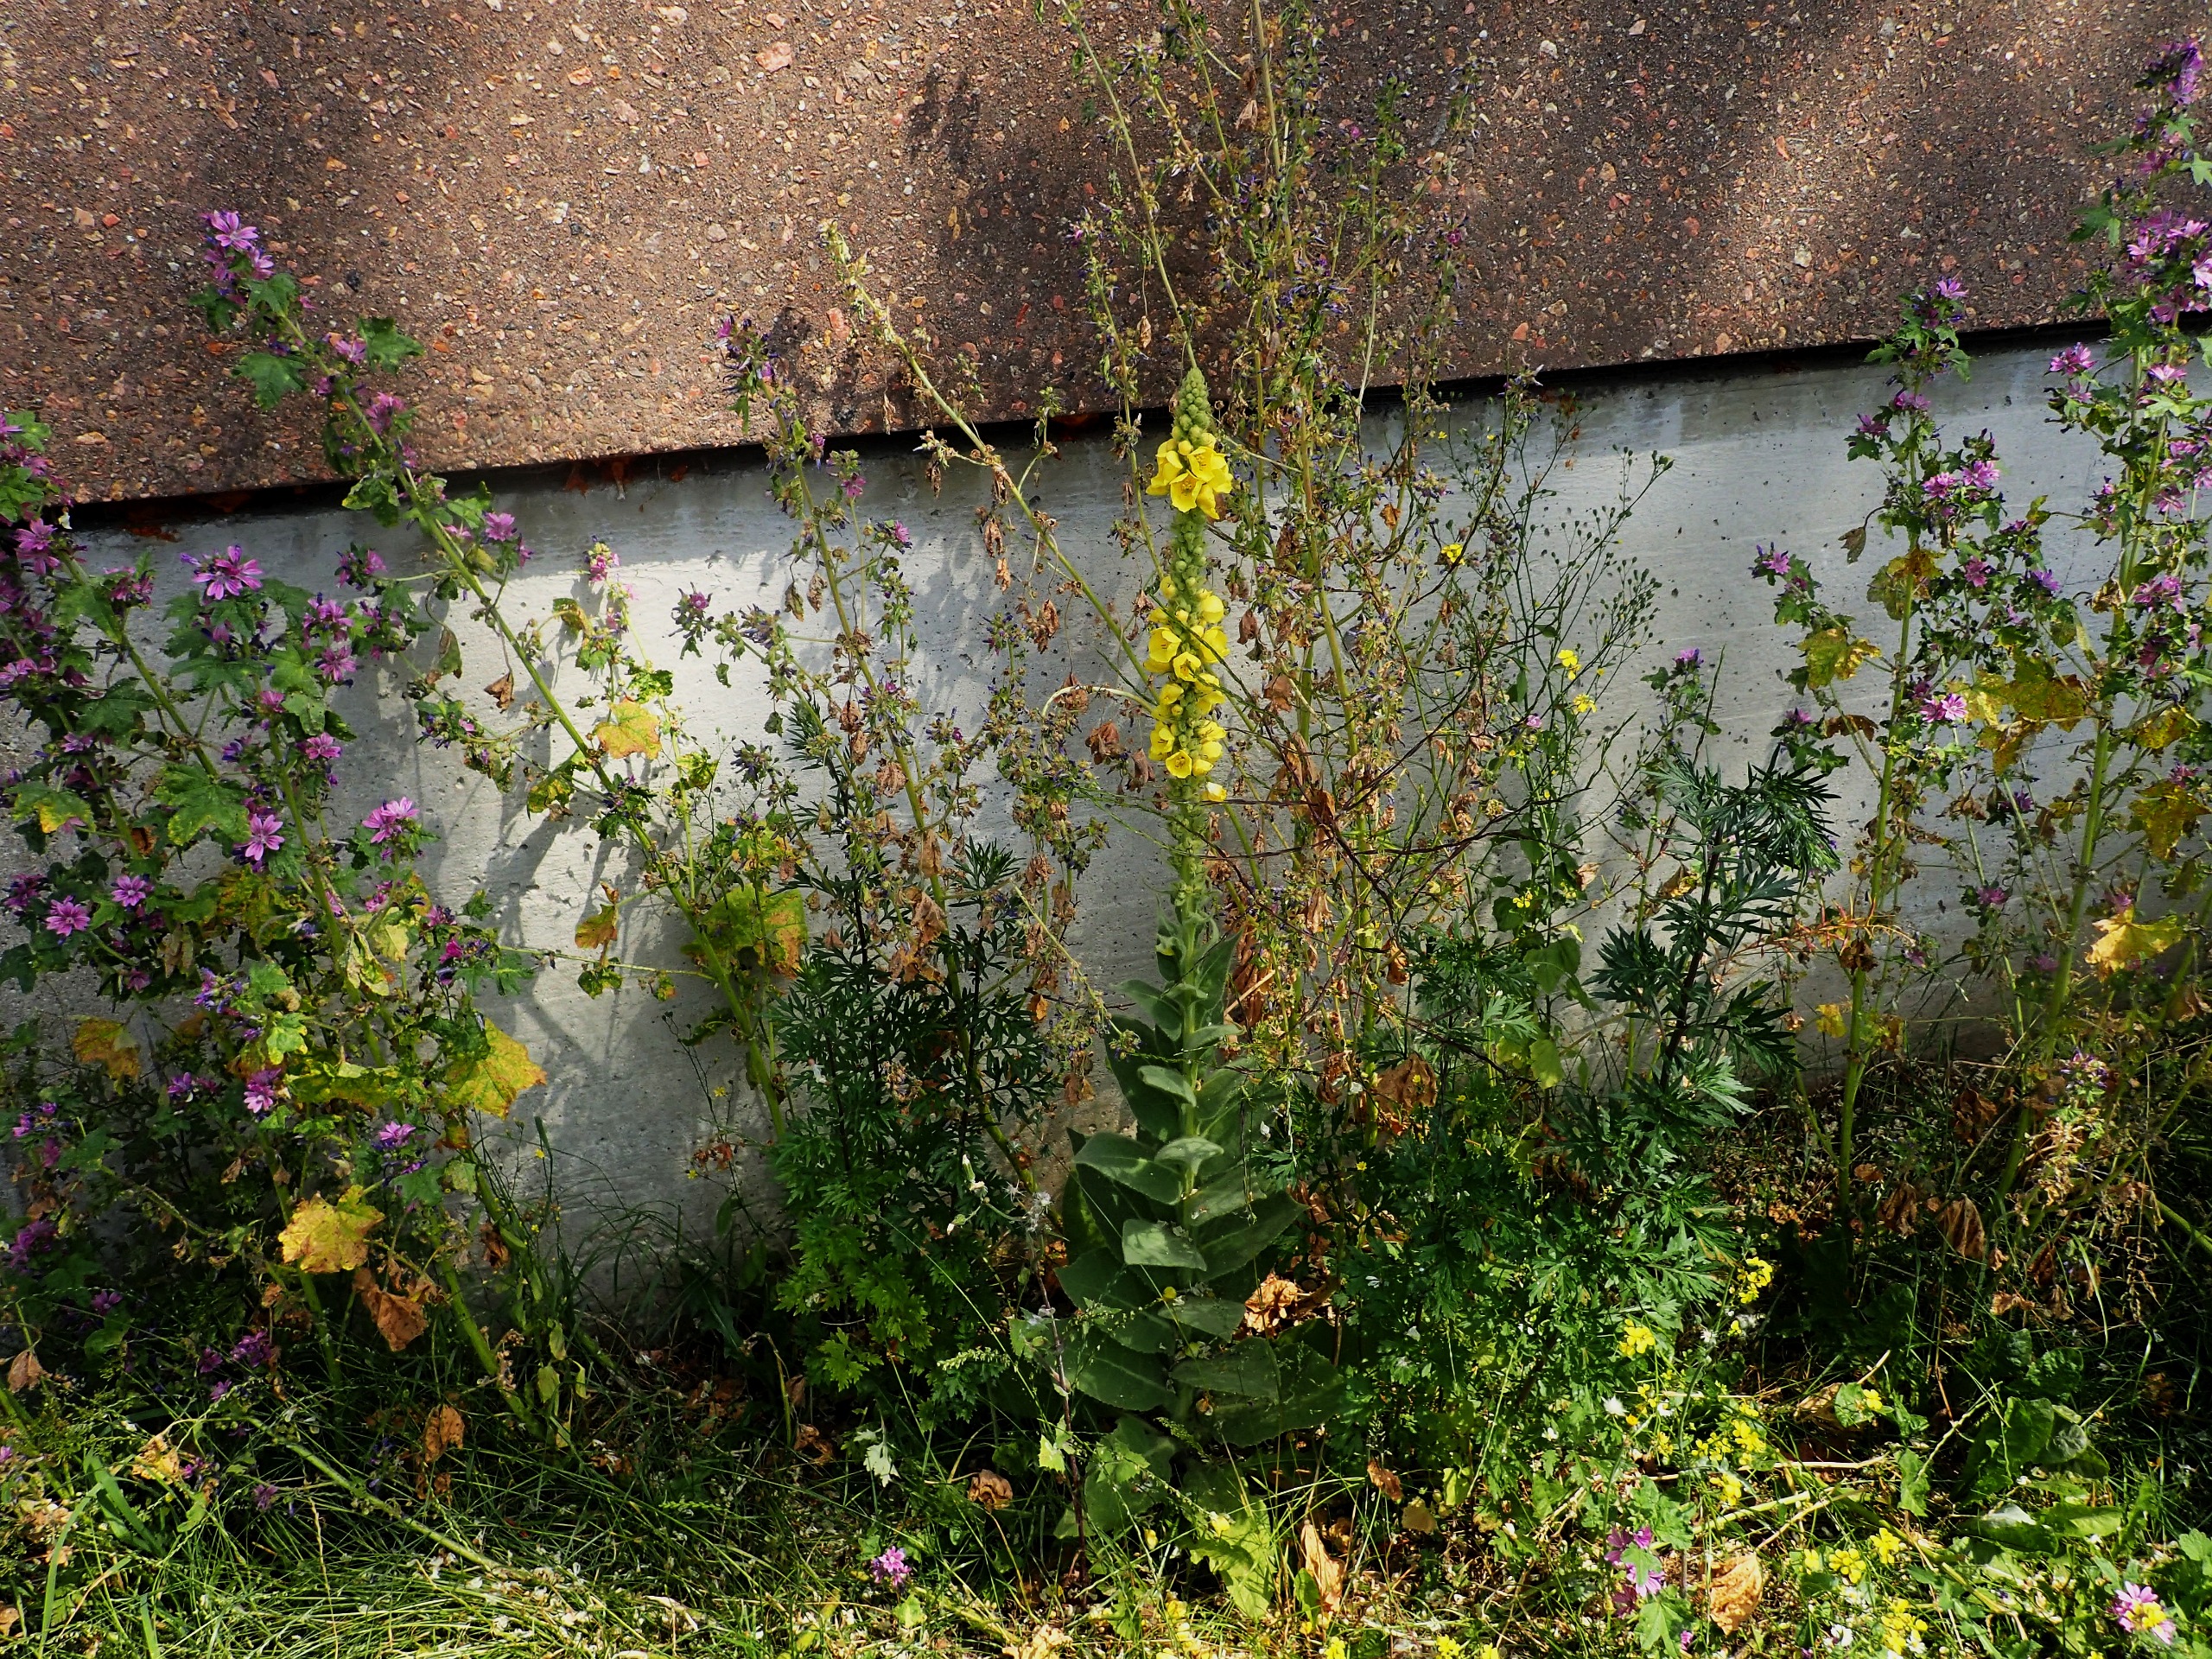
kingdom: Plantae
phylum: Tracheophyta
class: Magnoliopsida
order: Lamiales
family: Scrophulariaceae
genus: Verbascum
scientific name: Verbascum densiflorum
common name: Uldbladet kongelys
